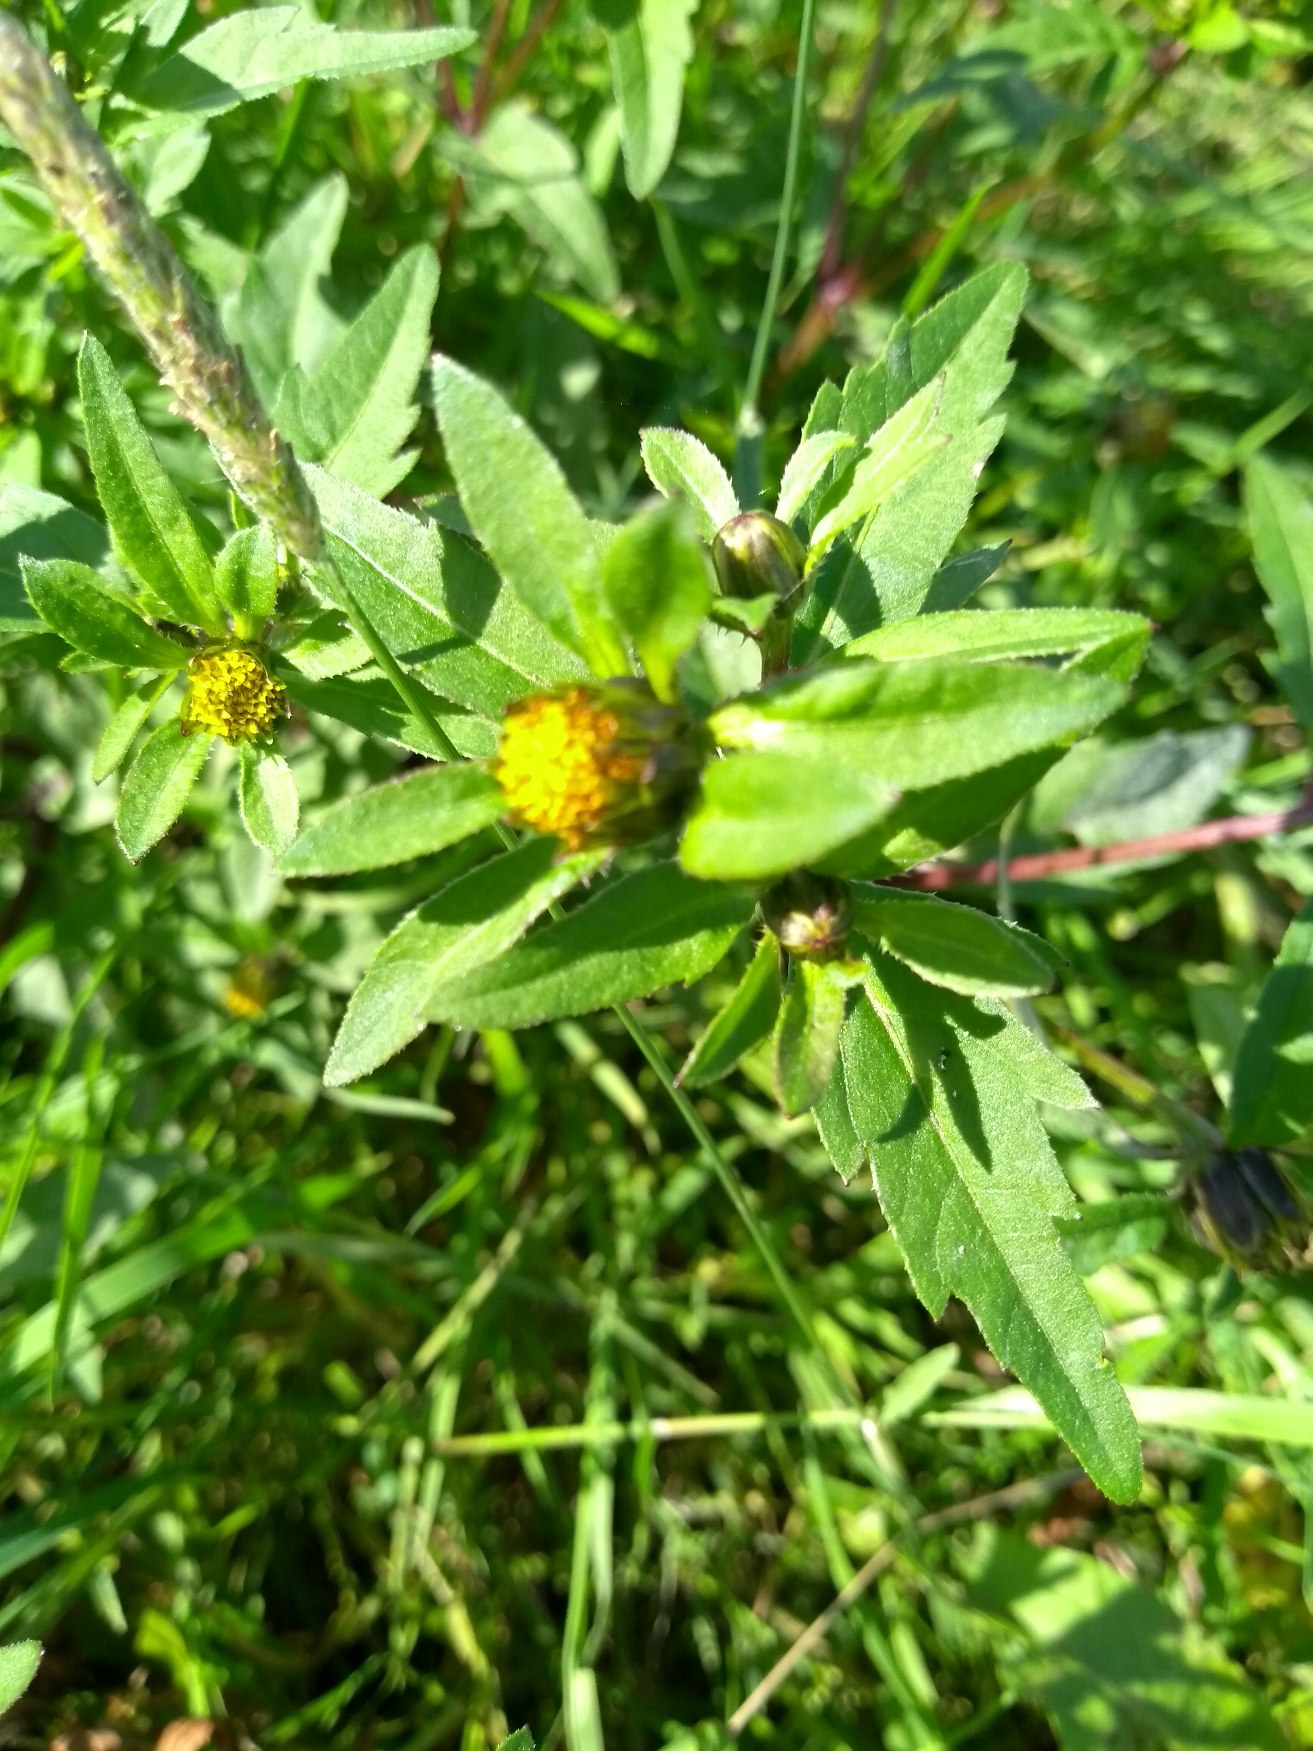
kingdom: Plantae
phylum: Tracheophyta
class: Magnoliopsida
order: Asterales
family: Asteraceae
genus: Bidens
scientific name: Bidens tripartita
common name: Fliget brøndsel
